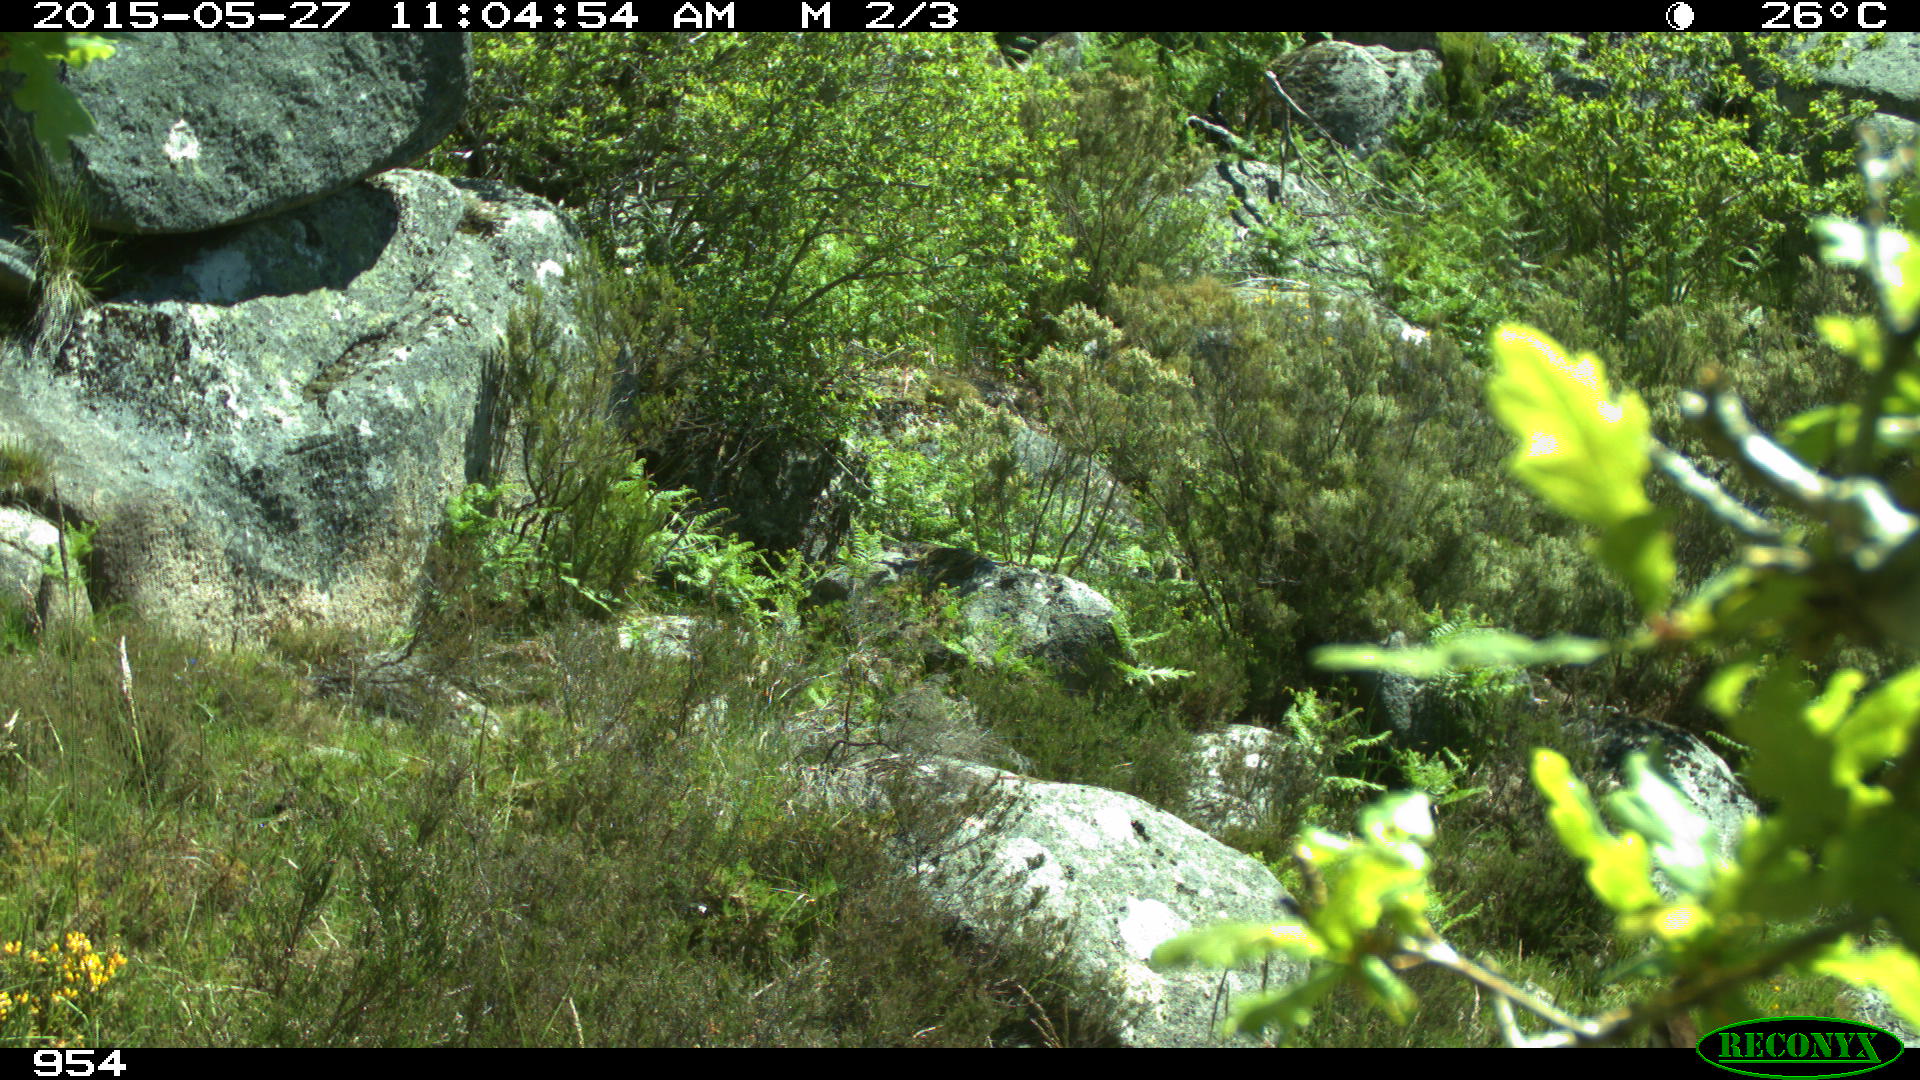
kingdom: Animalia
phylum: Chordata
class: Mammalia
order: Artiodactyla
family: Cervidae
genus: Capreolus
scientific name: Capreolus capreolus
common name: Western roe deer
